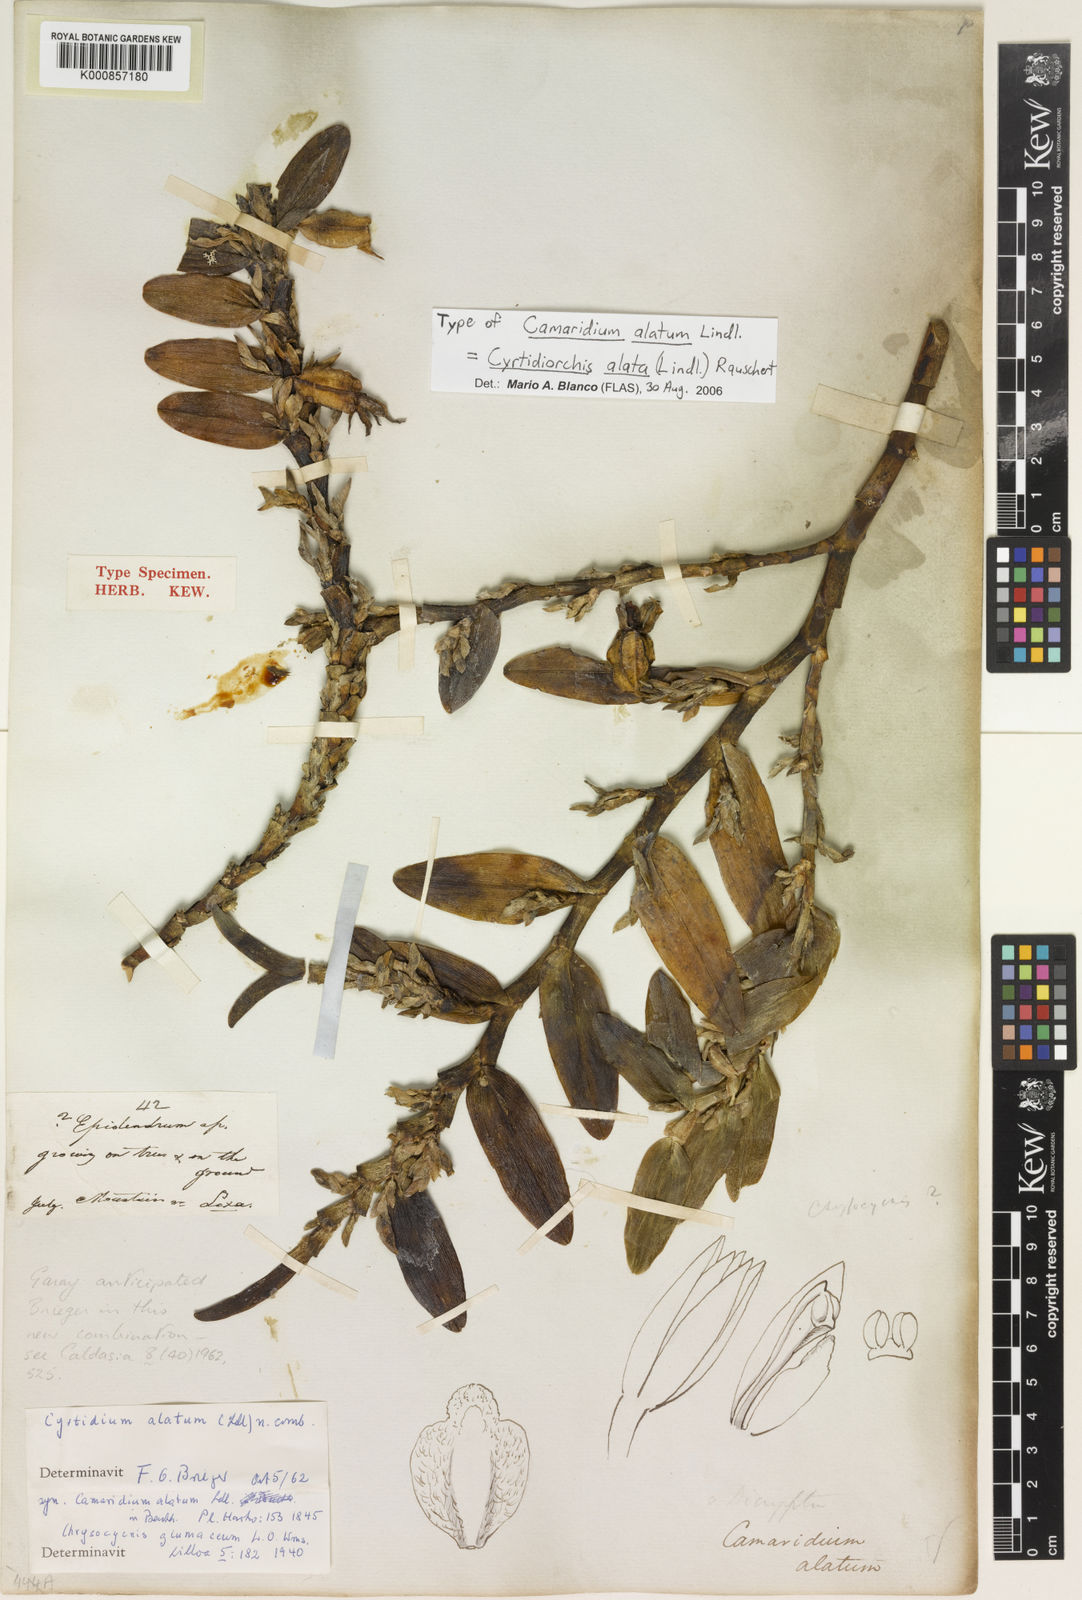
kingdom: Plantae
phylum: Tracheophyta
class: Liliopsida
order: Asparagales
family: Orchidaceae
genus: Maxillaria
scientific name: Maxillaria avis
